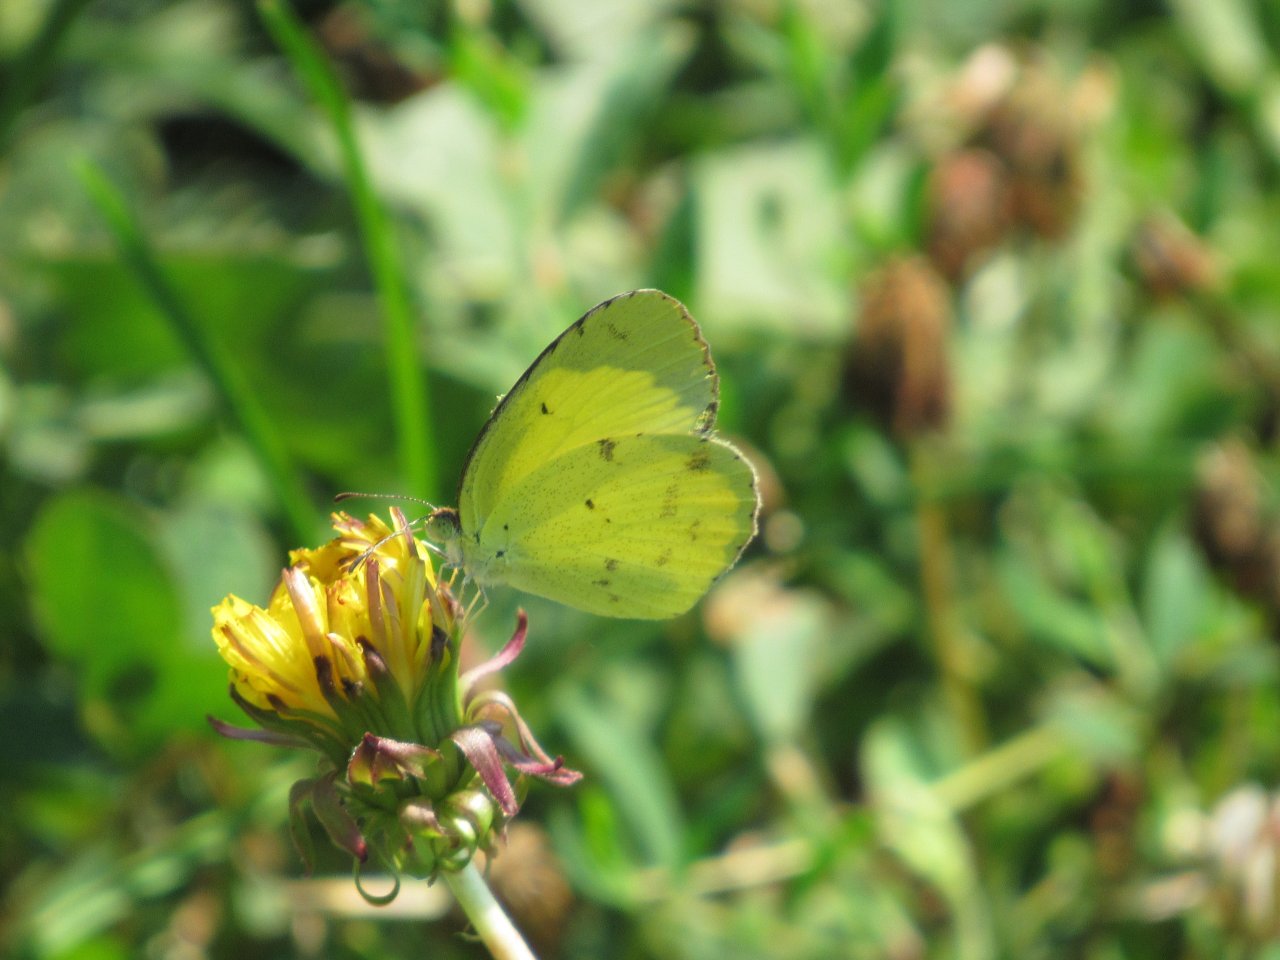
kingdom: Animalia
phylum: Arthropoda
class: Insecta
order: Lepidoptera
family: Pieridae
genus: Pyrisitia
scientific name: Pyrisitia lisa
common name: Little Yellow
